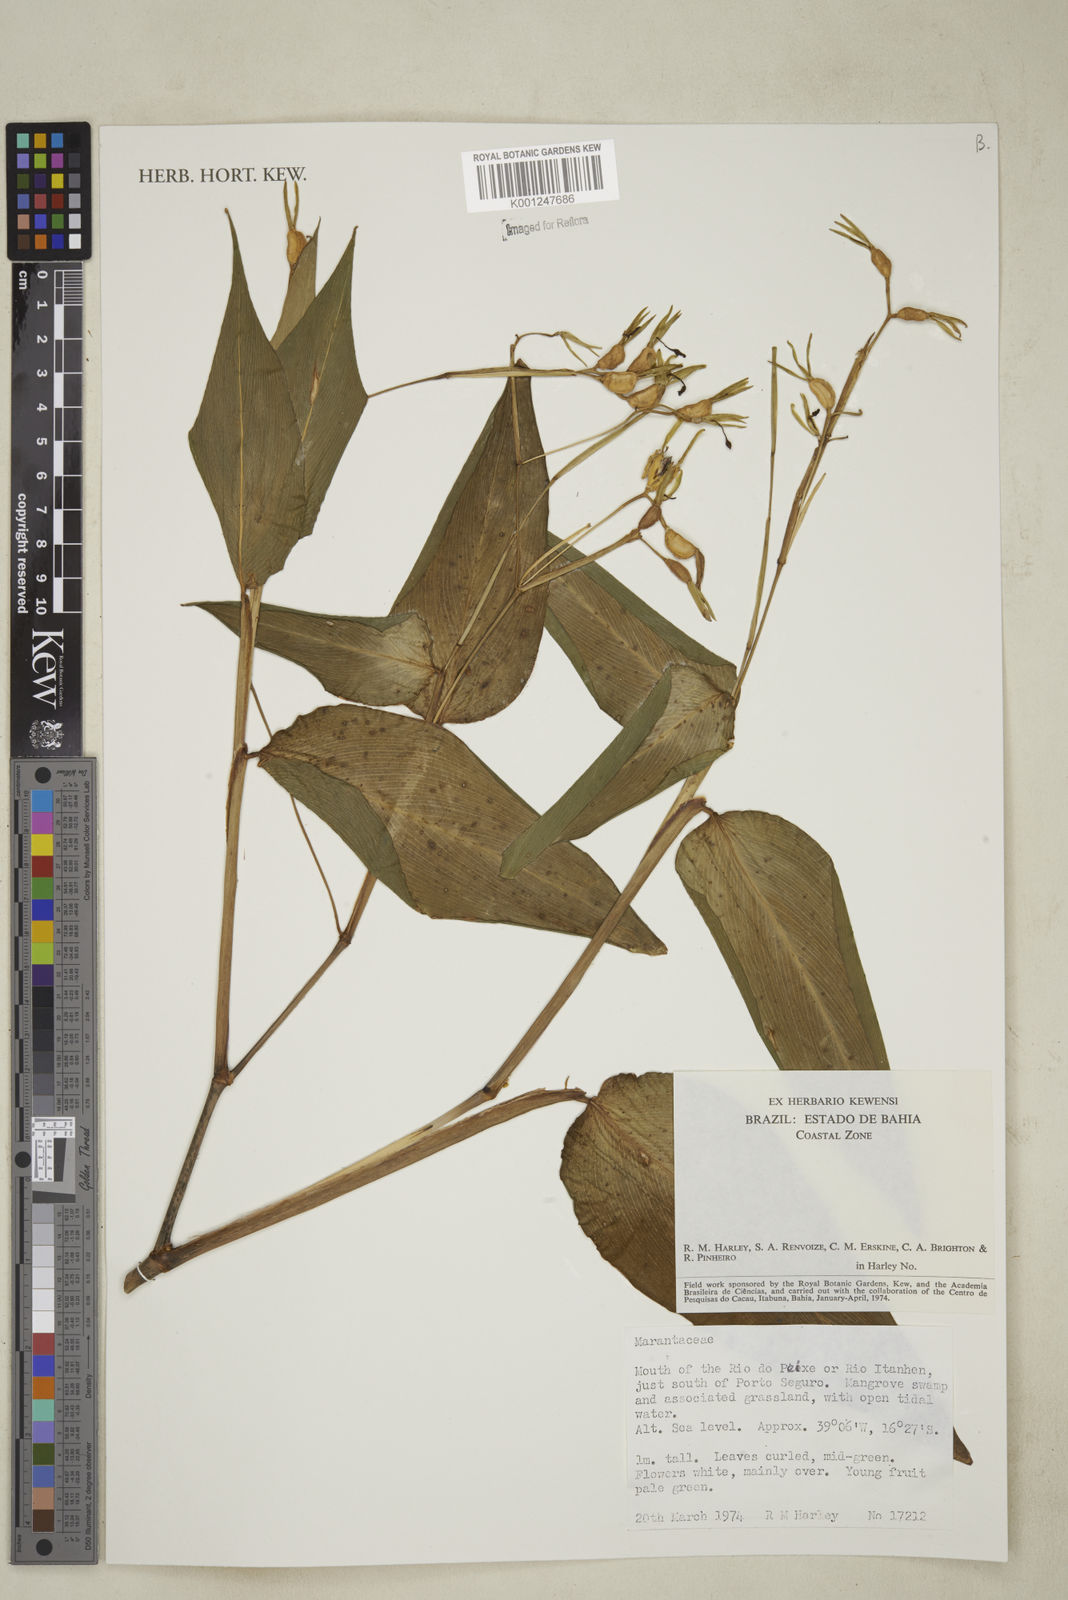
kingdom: Plantae
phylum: Tracheophyta
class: Liliopsida
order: Zingiberales
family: Marantaceae
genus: Maranta
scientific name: Maranta
